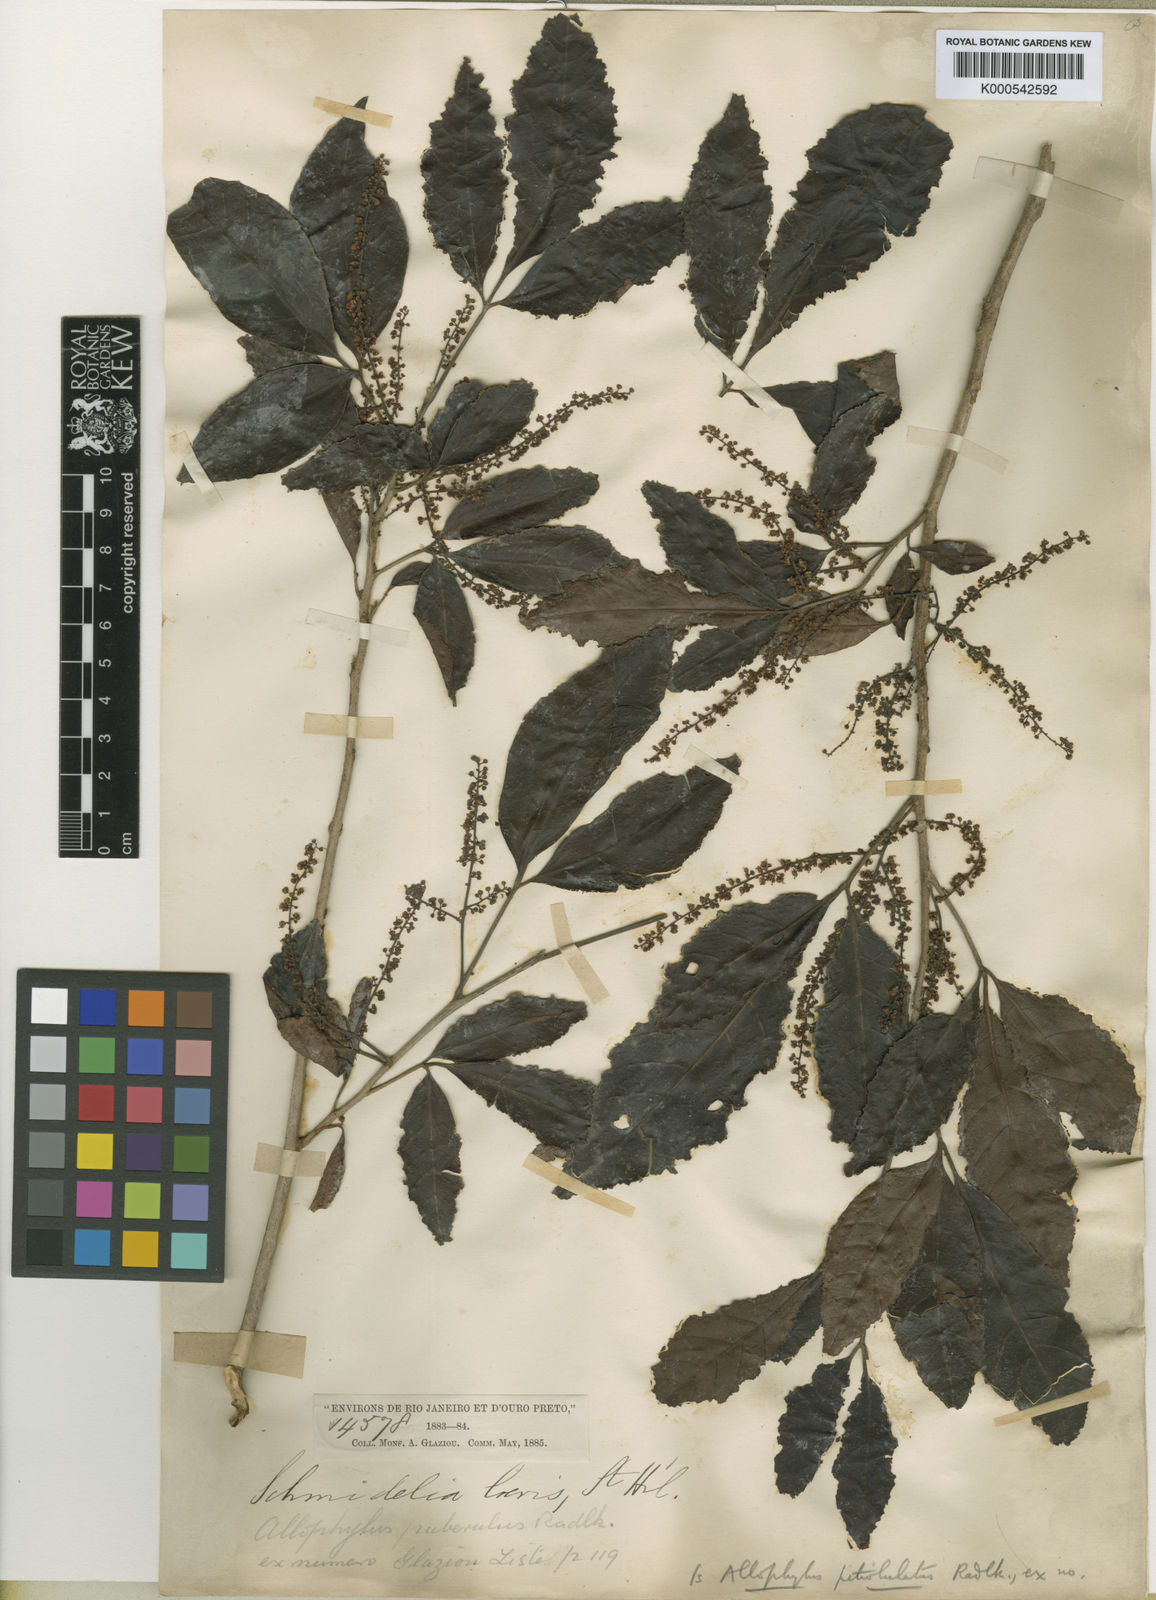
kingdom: Plantae
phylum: Tracheophyta
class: Magnoliopsida
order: Sapindales
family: Sapindaceae
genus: Allophylus
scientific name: Allophylus petiolulatus
